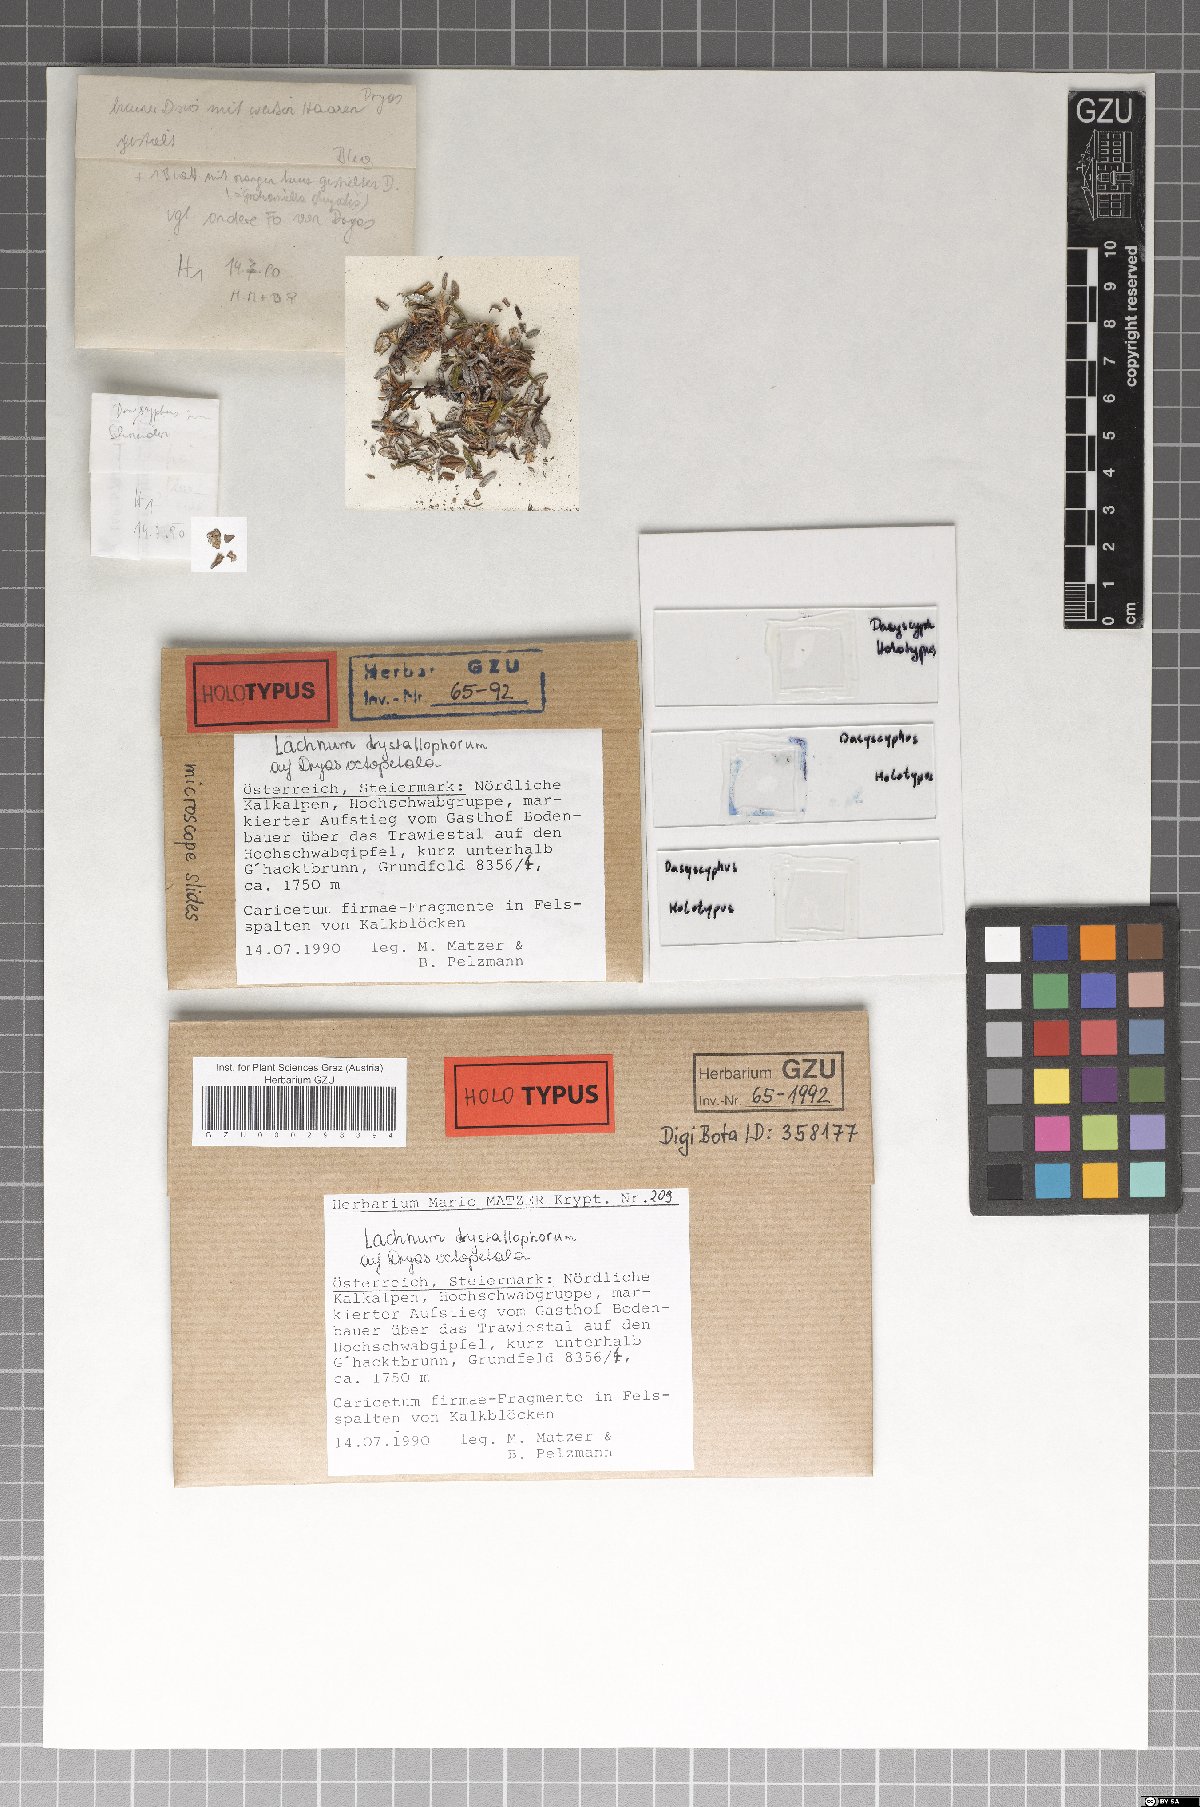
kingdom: Fungi
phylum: Ascomycota
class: Leotiomycetes
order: Helotiales
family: Hyaloscyphaceae
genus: Incrupila
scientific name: Incrupila crystallophora
